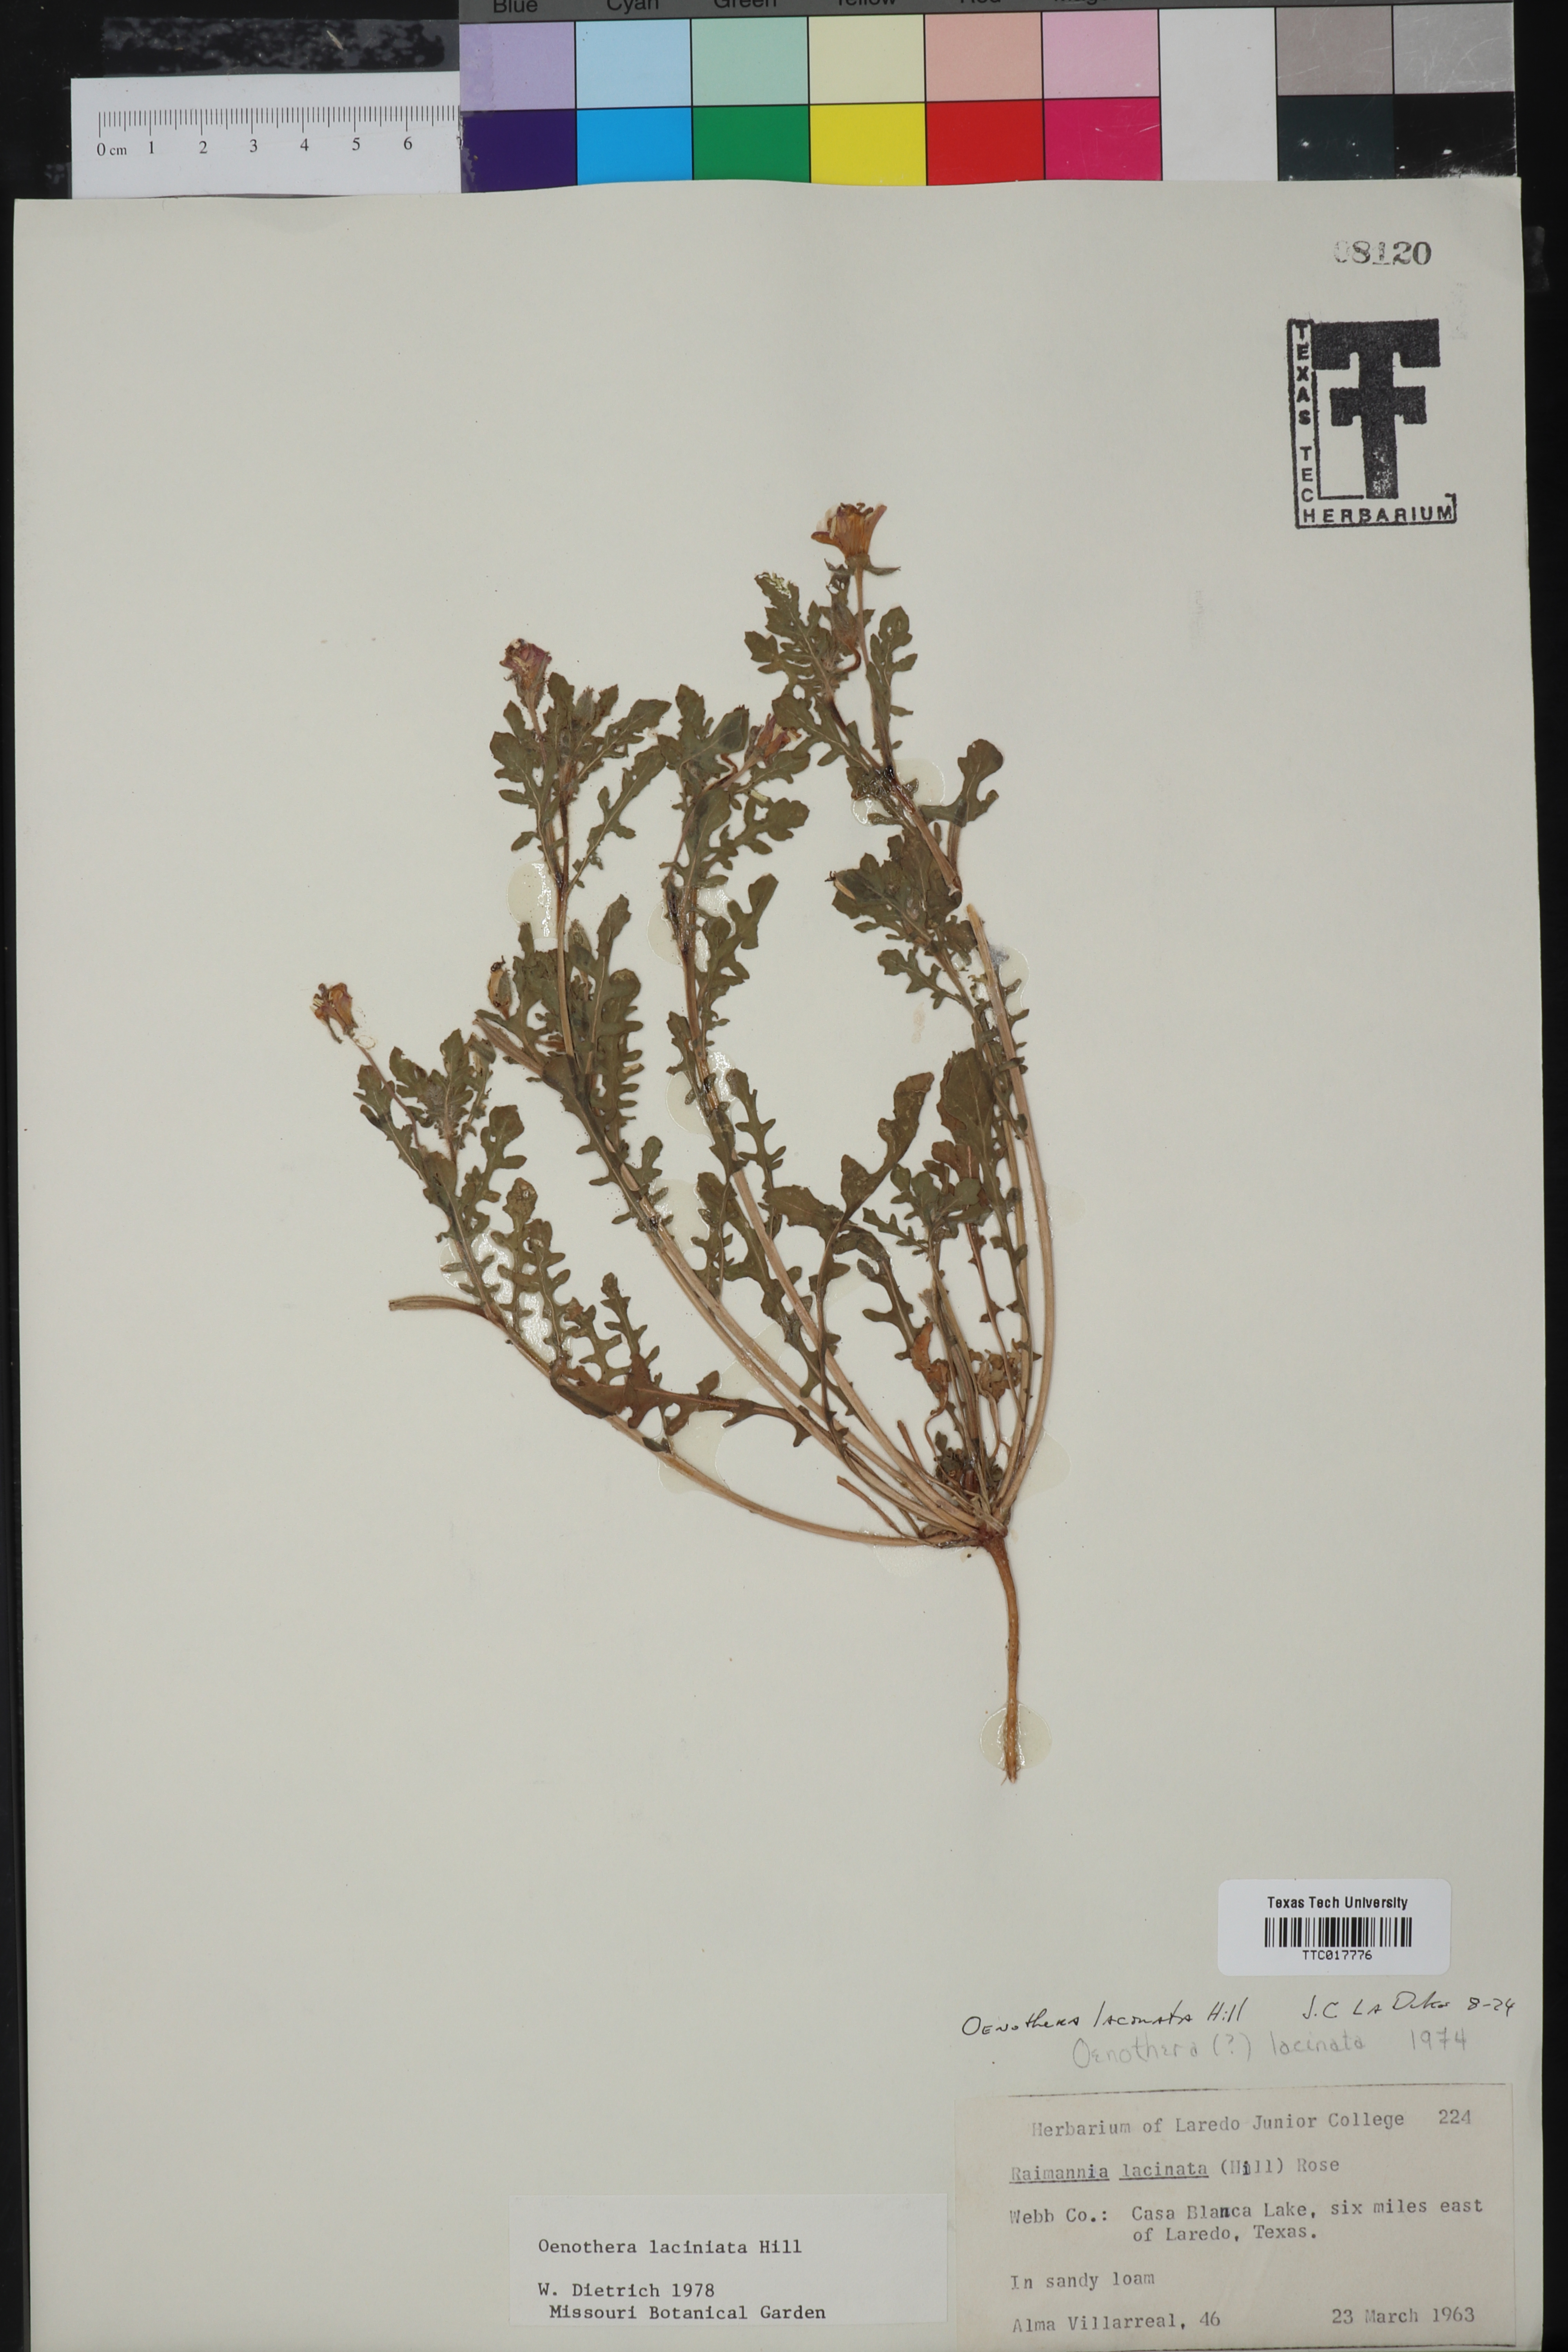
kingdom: Plantae
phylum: Tracheophyta
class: Magnoliopsida
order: Myrtales
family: Onagraceae
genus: Oenothera
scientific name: Oenothera laciniata
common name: Cut-leaved evening-primrose
